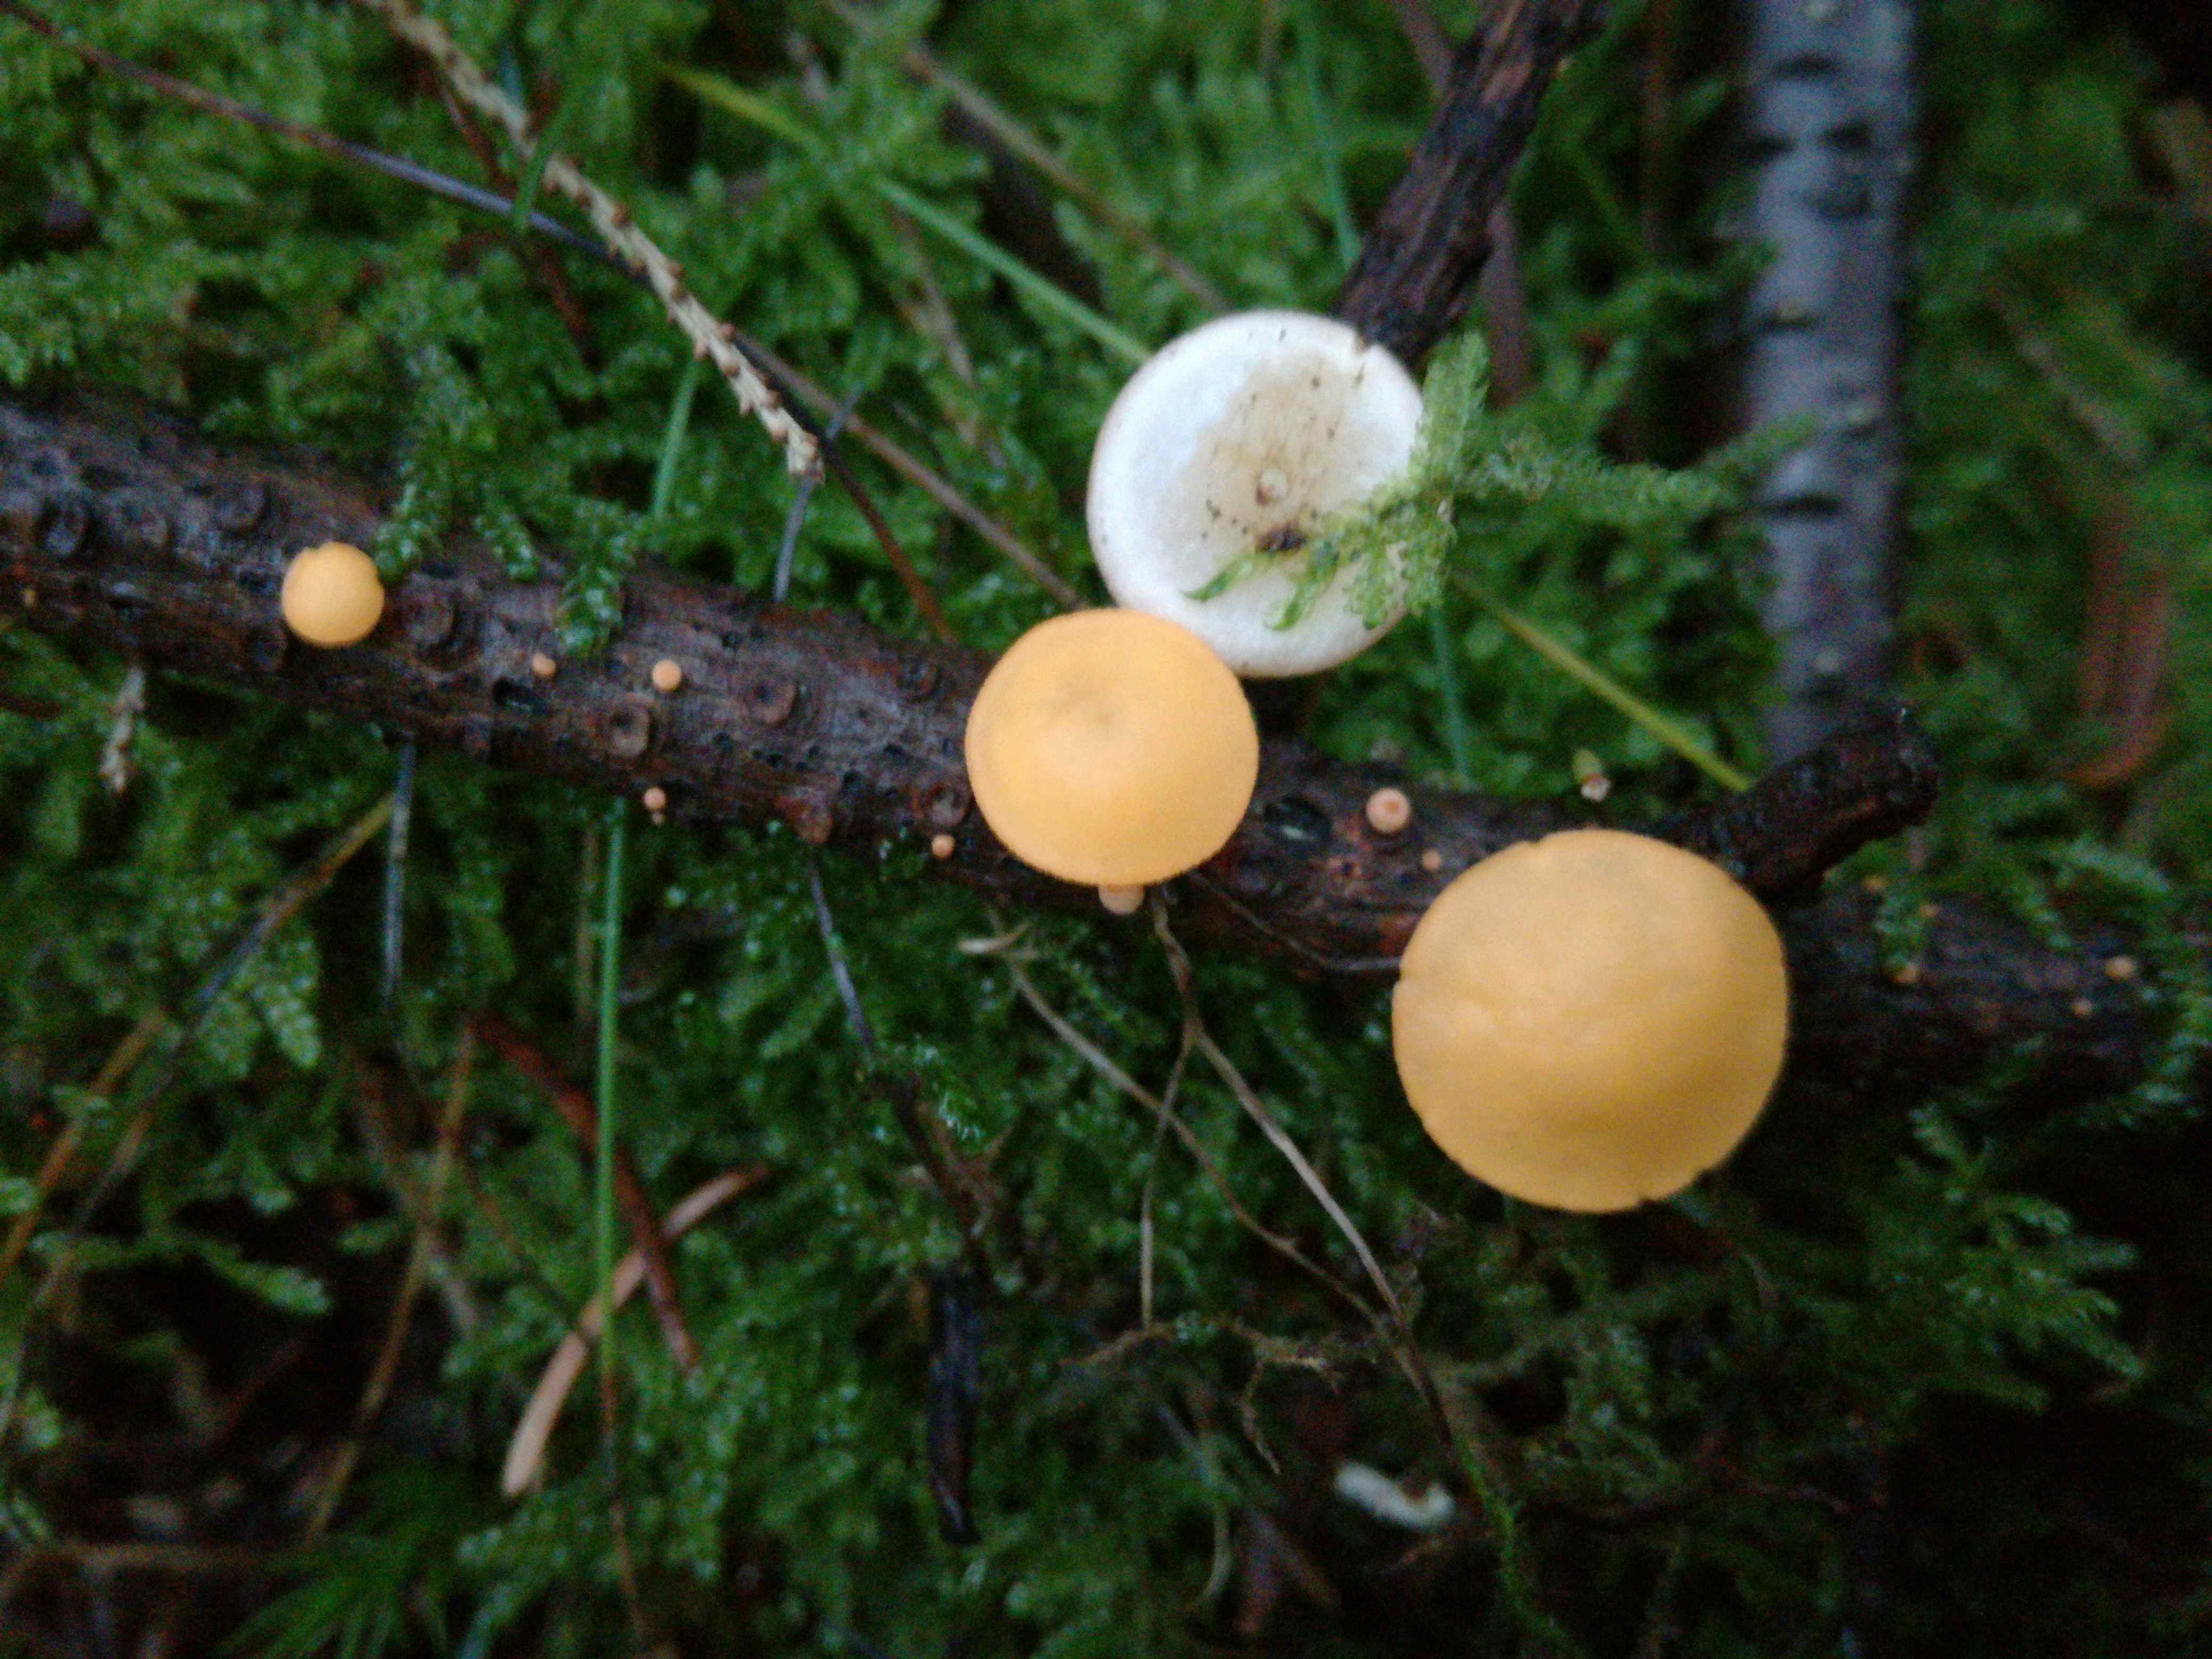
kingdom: Fungi
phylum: Ascomycota
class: Pezizomycetes
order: Pezizales
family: Sarcoscyphaceae
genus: Pithya
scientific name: Pithya vulgaris
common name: stor dukatbæger
